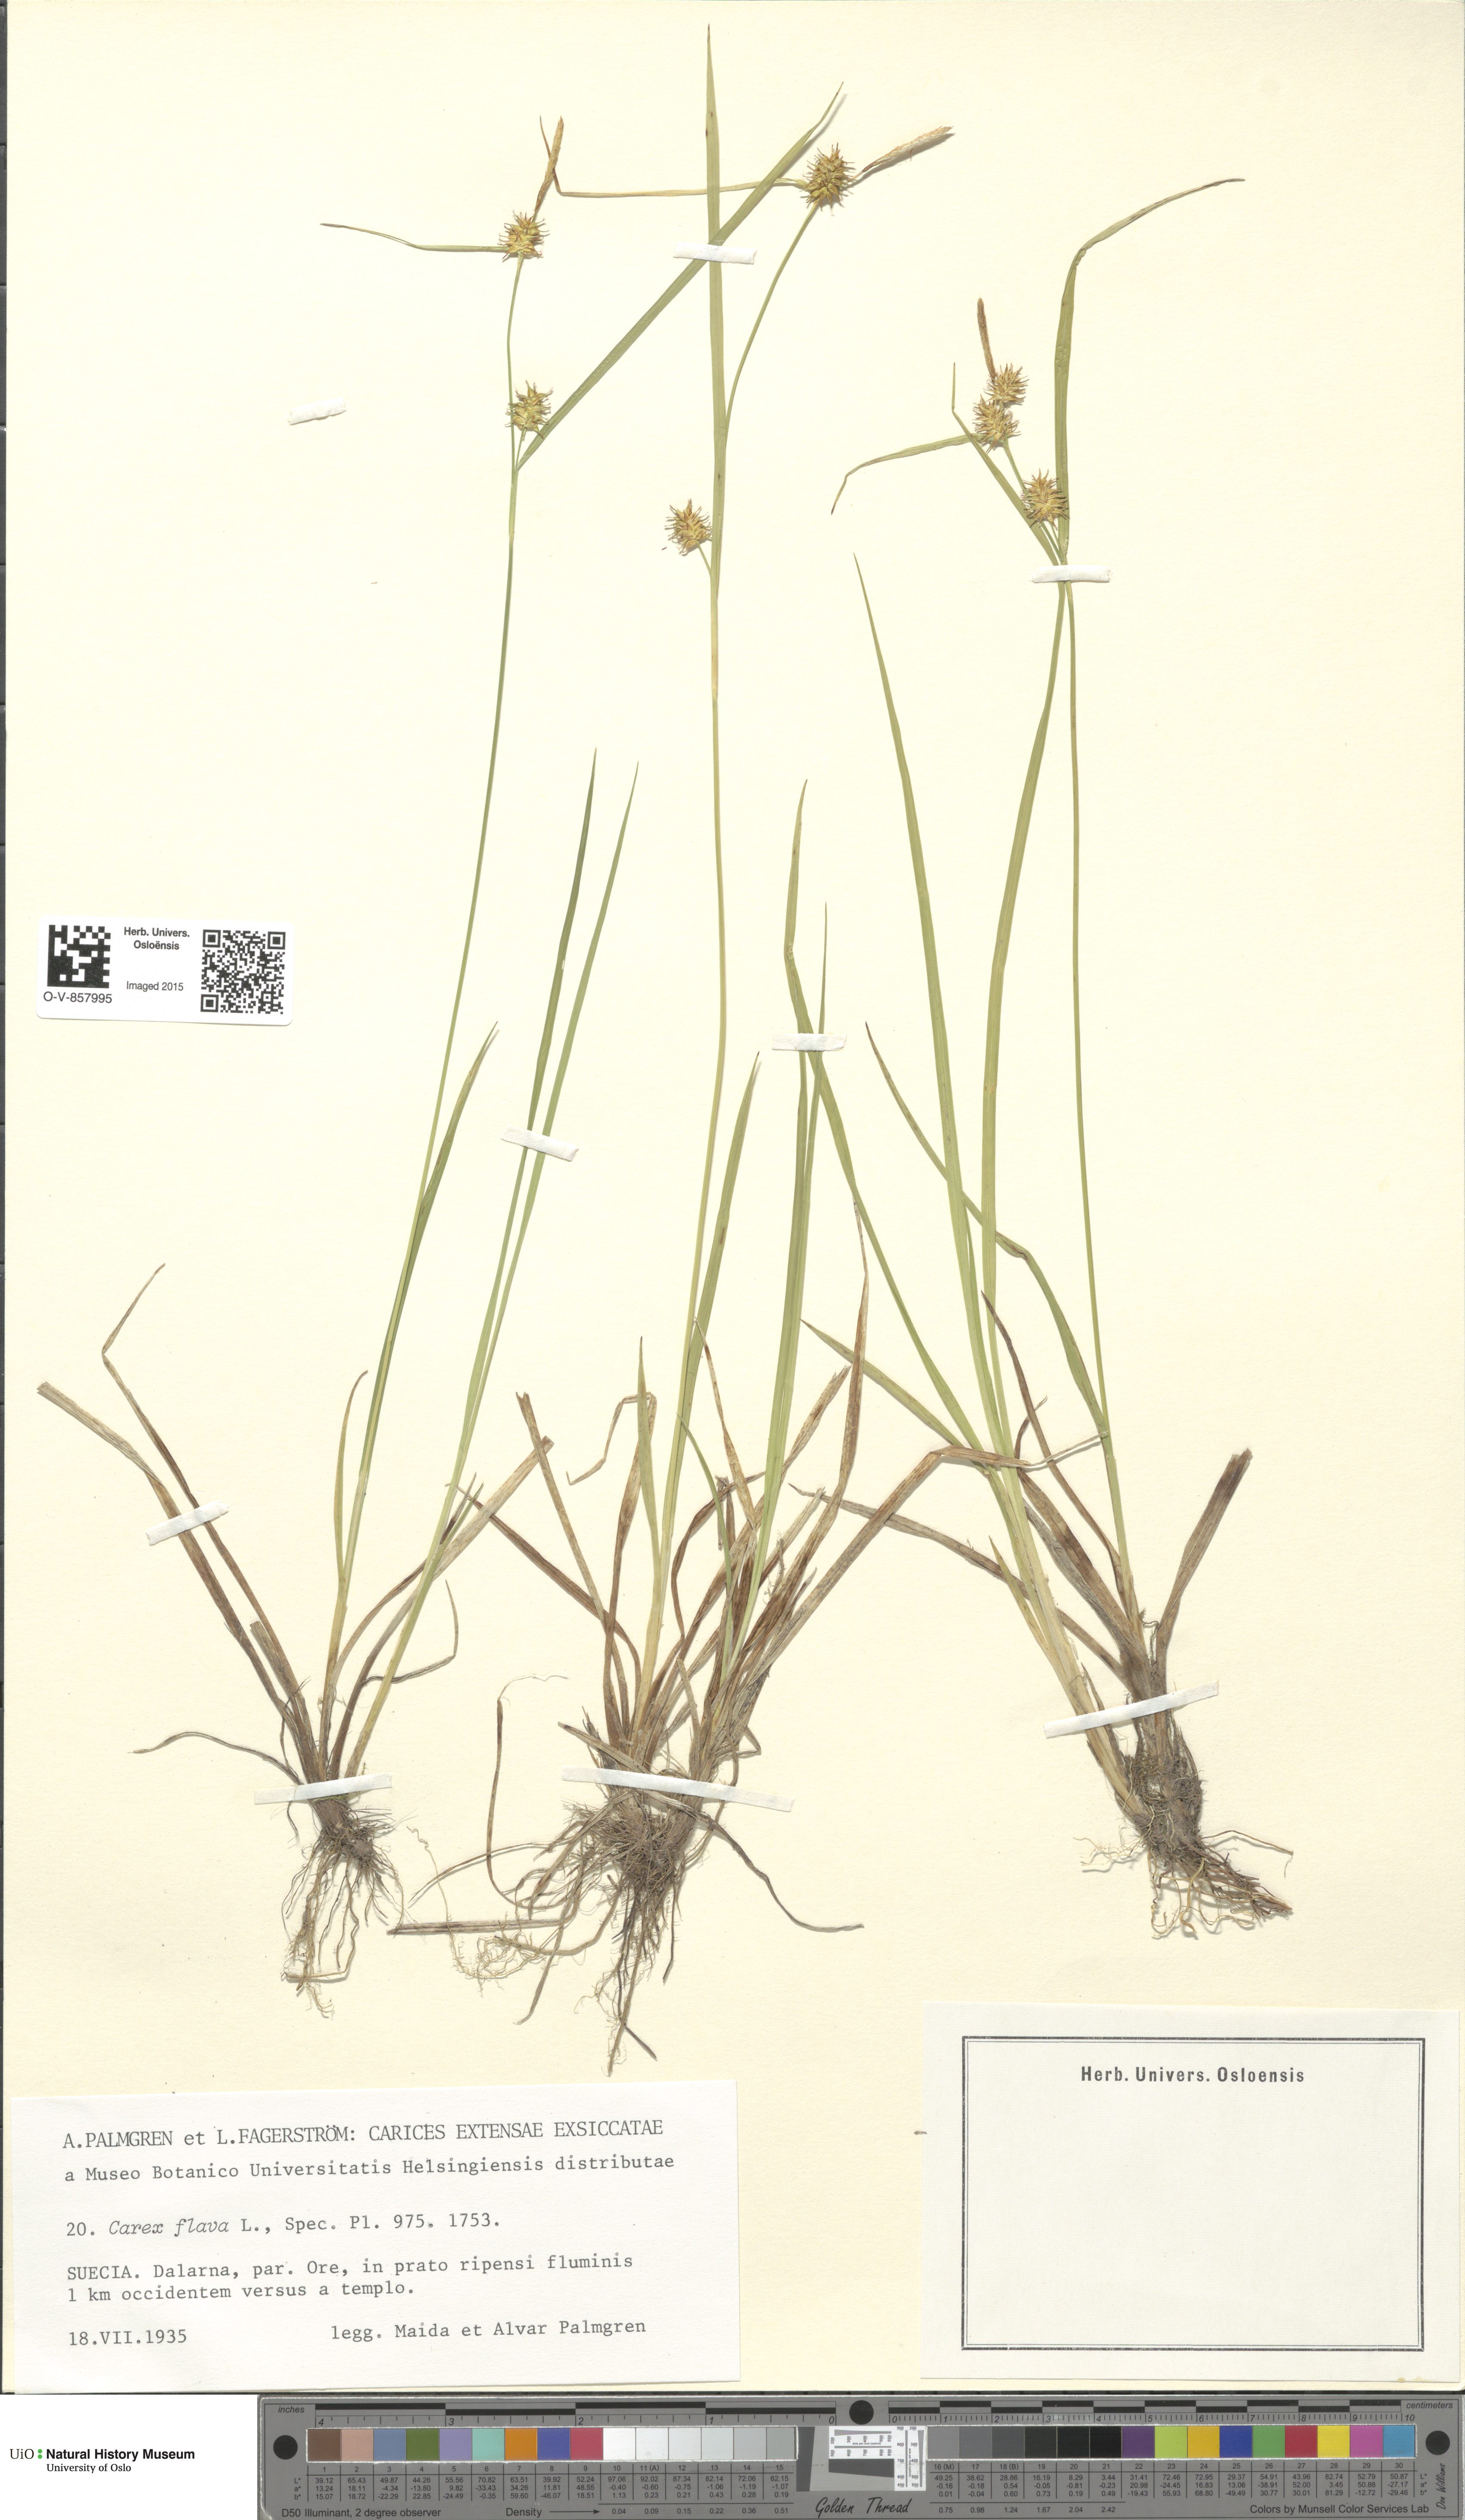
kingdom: Plantae
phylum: Tracheophyta
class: Liliopsida
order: Poales
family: Cyperaceae
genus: Carex
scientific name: Carex flava
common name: Large yellow-sedge
